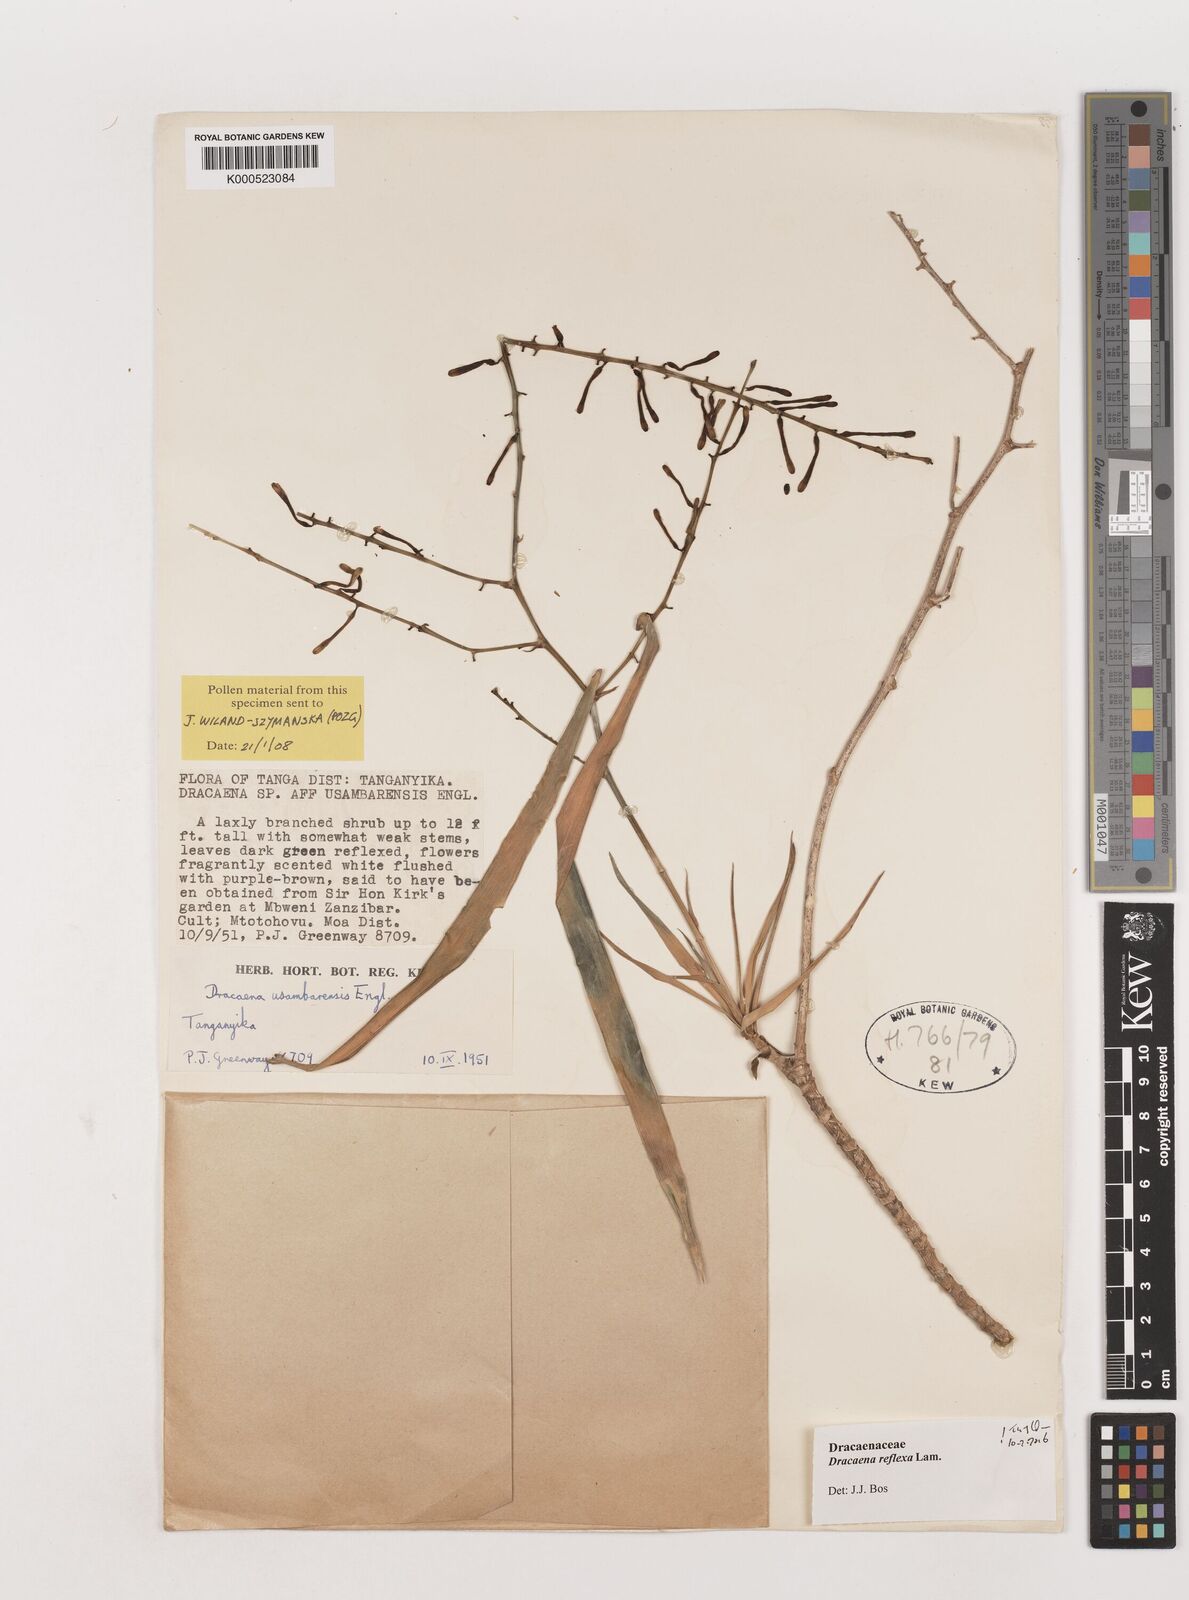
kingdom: Plantae
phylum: Tracheophyta
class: Liliopsida
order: Asparagales
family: Asparagaceae
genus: Dracaena
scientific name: Dracaena reflexa
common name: Song-of-india
